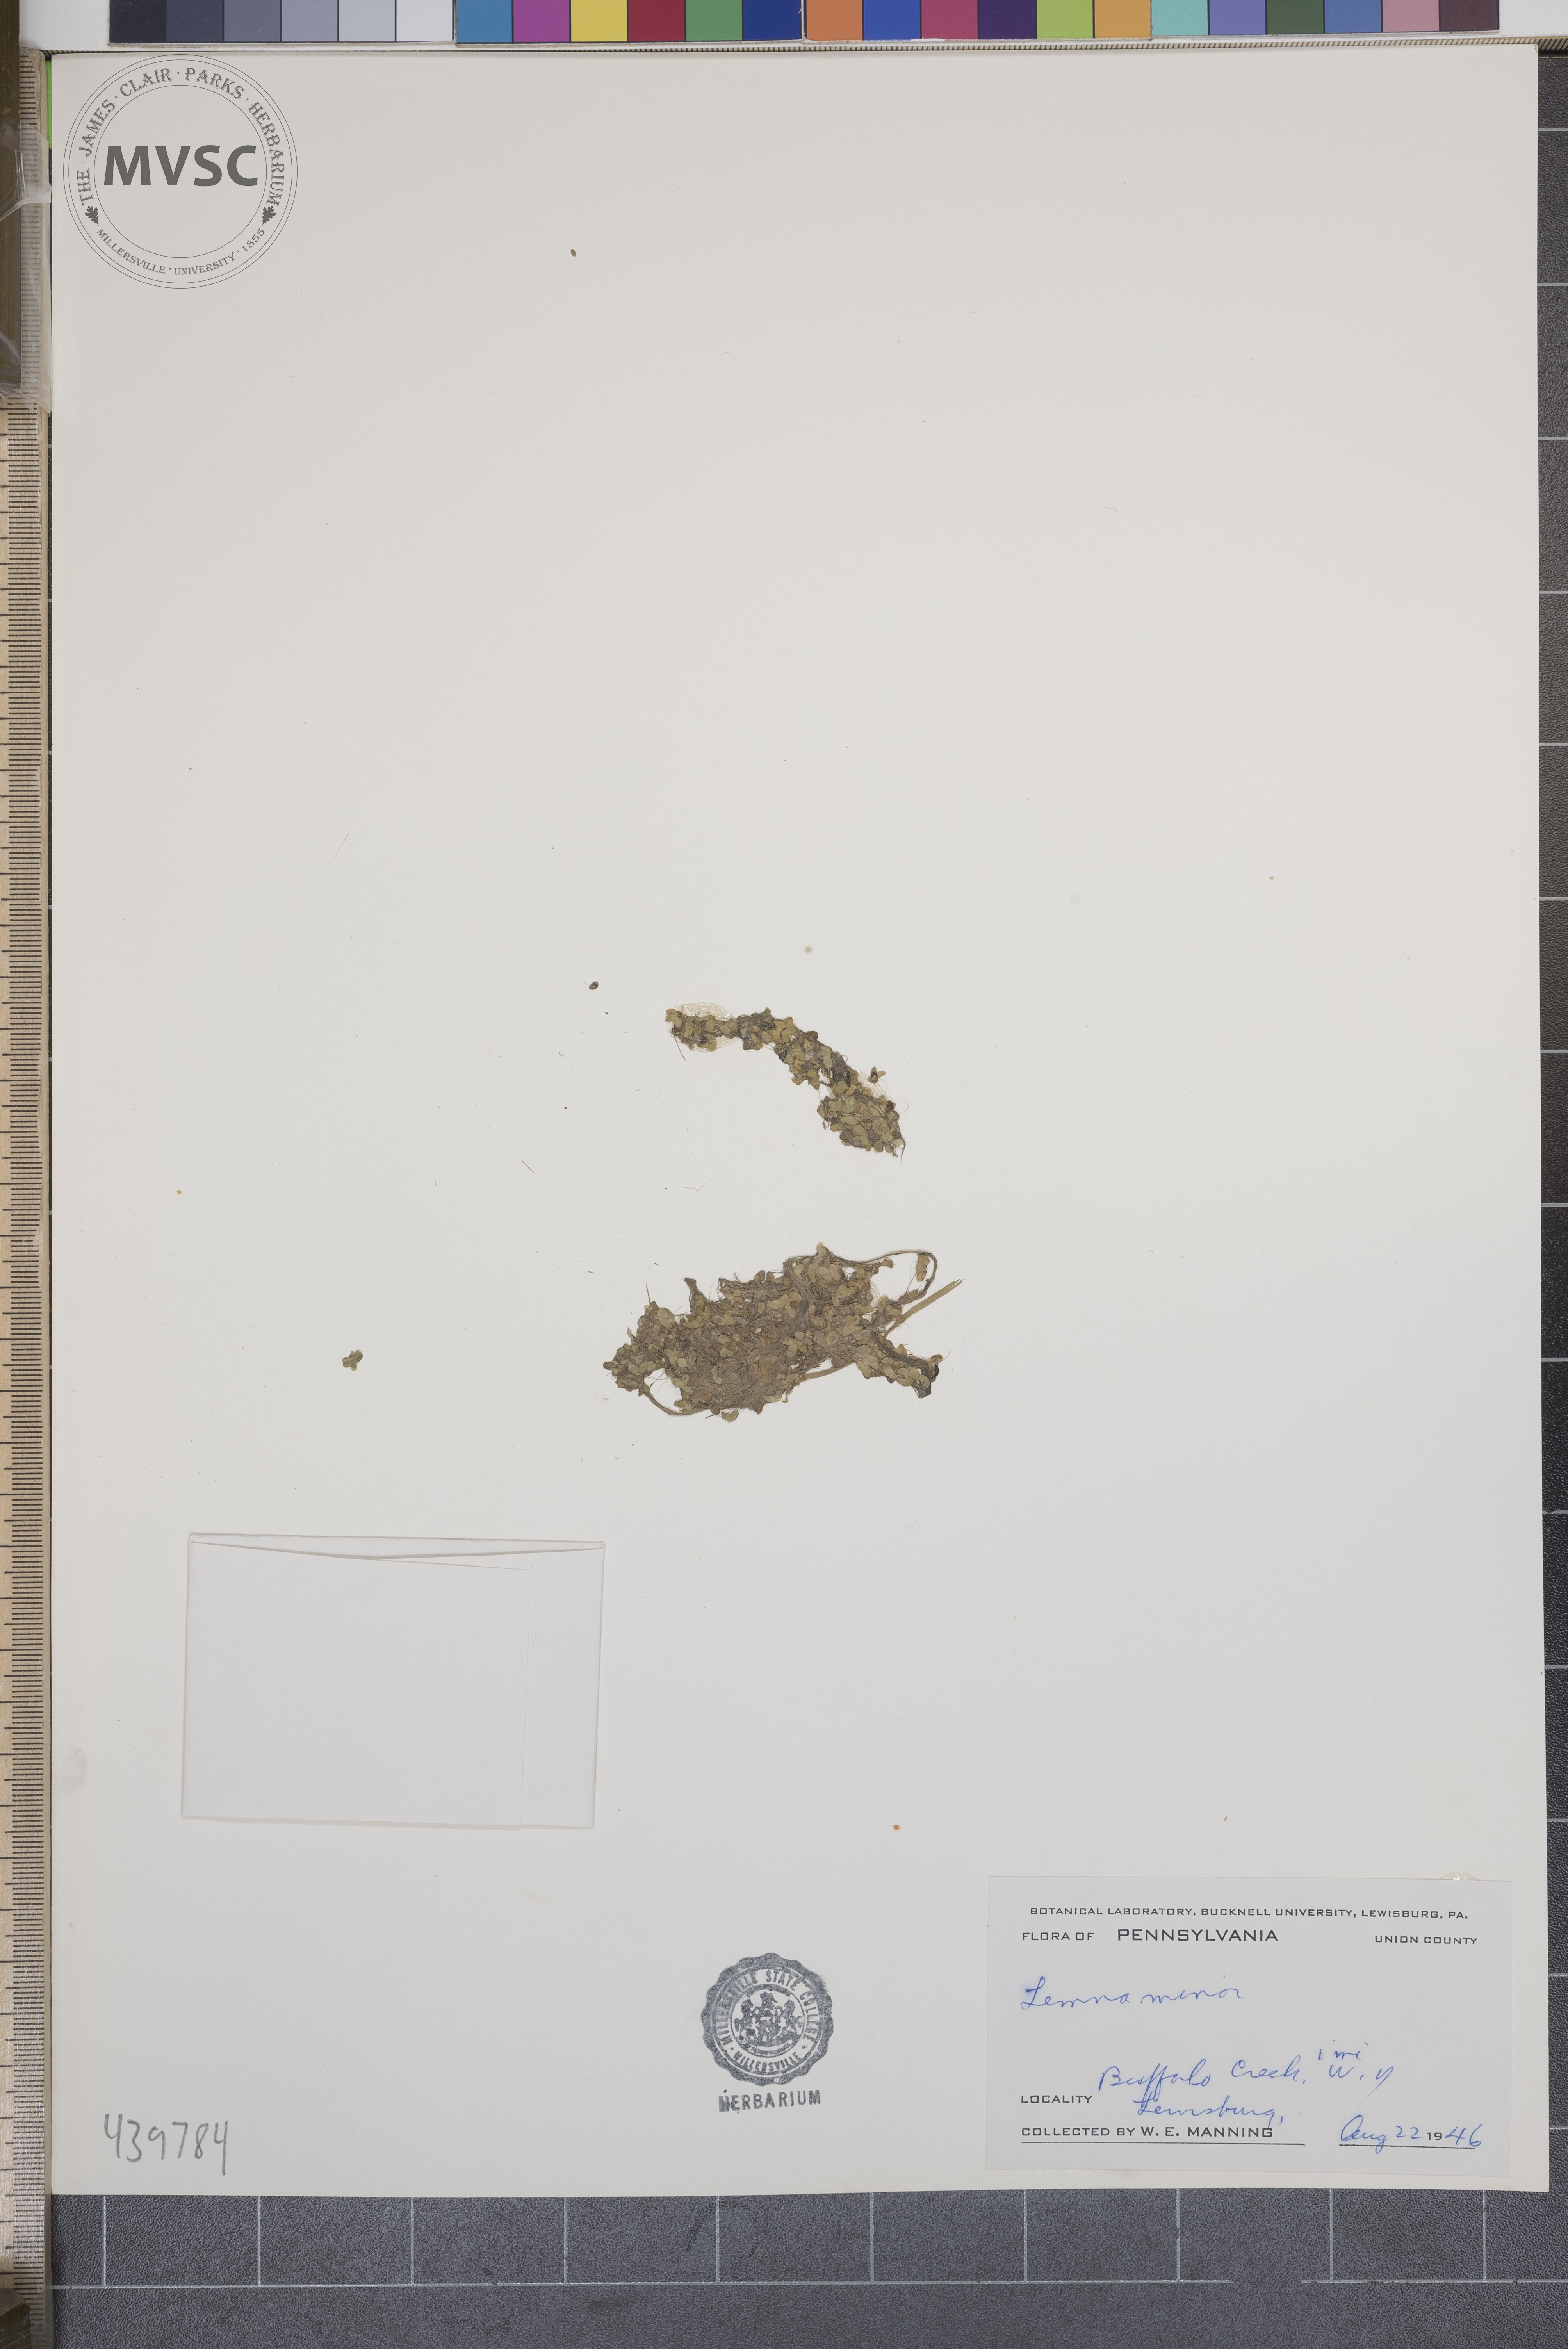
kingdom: Plantae
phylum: Tracheophyta
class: Liliopsida
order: Alismatales
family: Araceae
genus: Lemna
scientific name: Lemna minor
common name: Common duckweed
